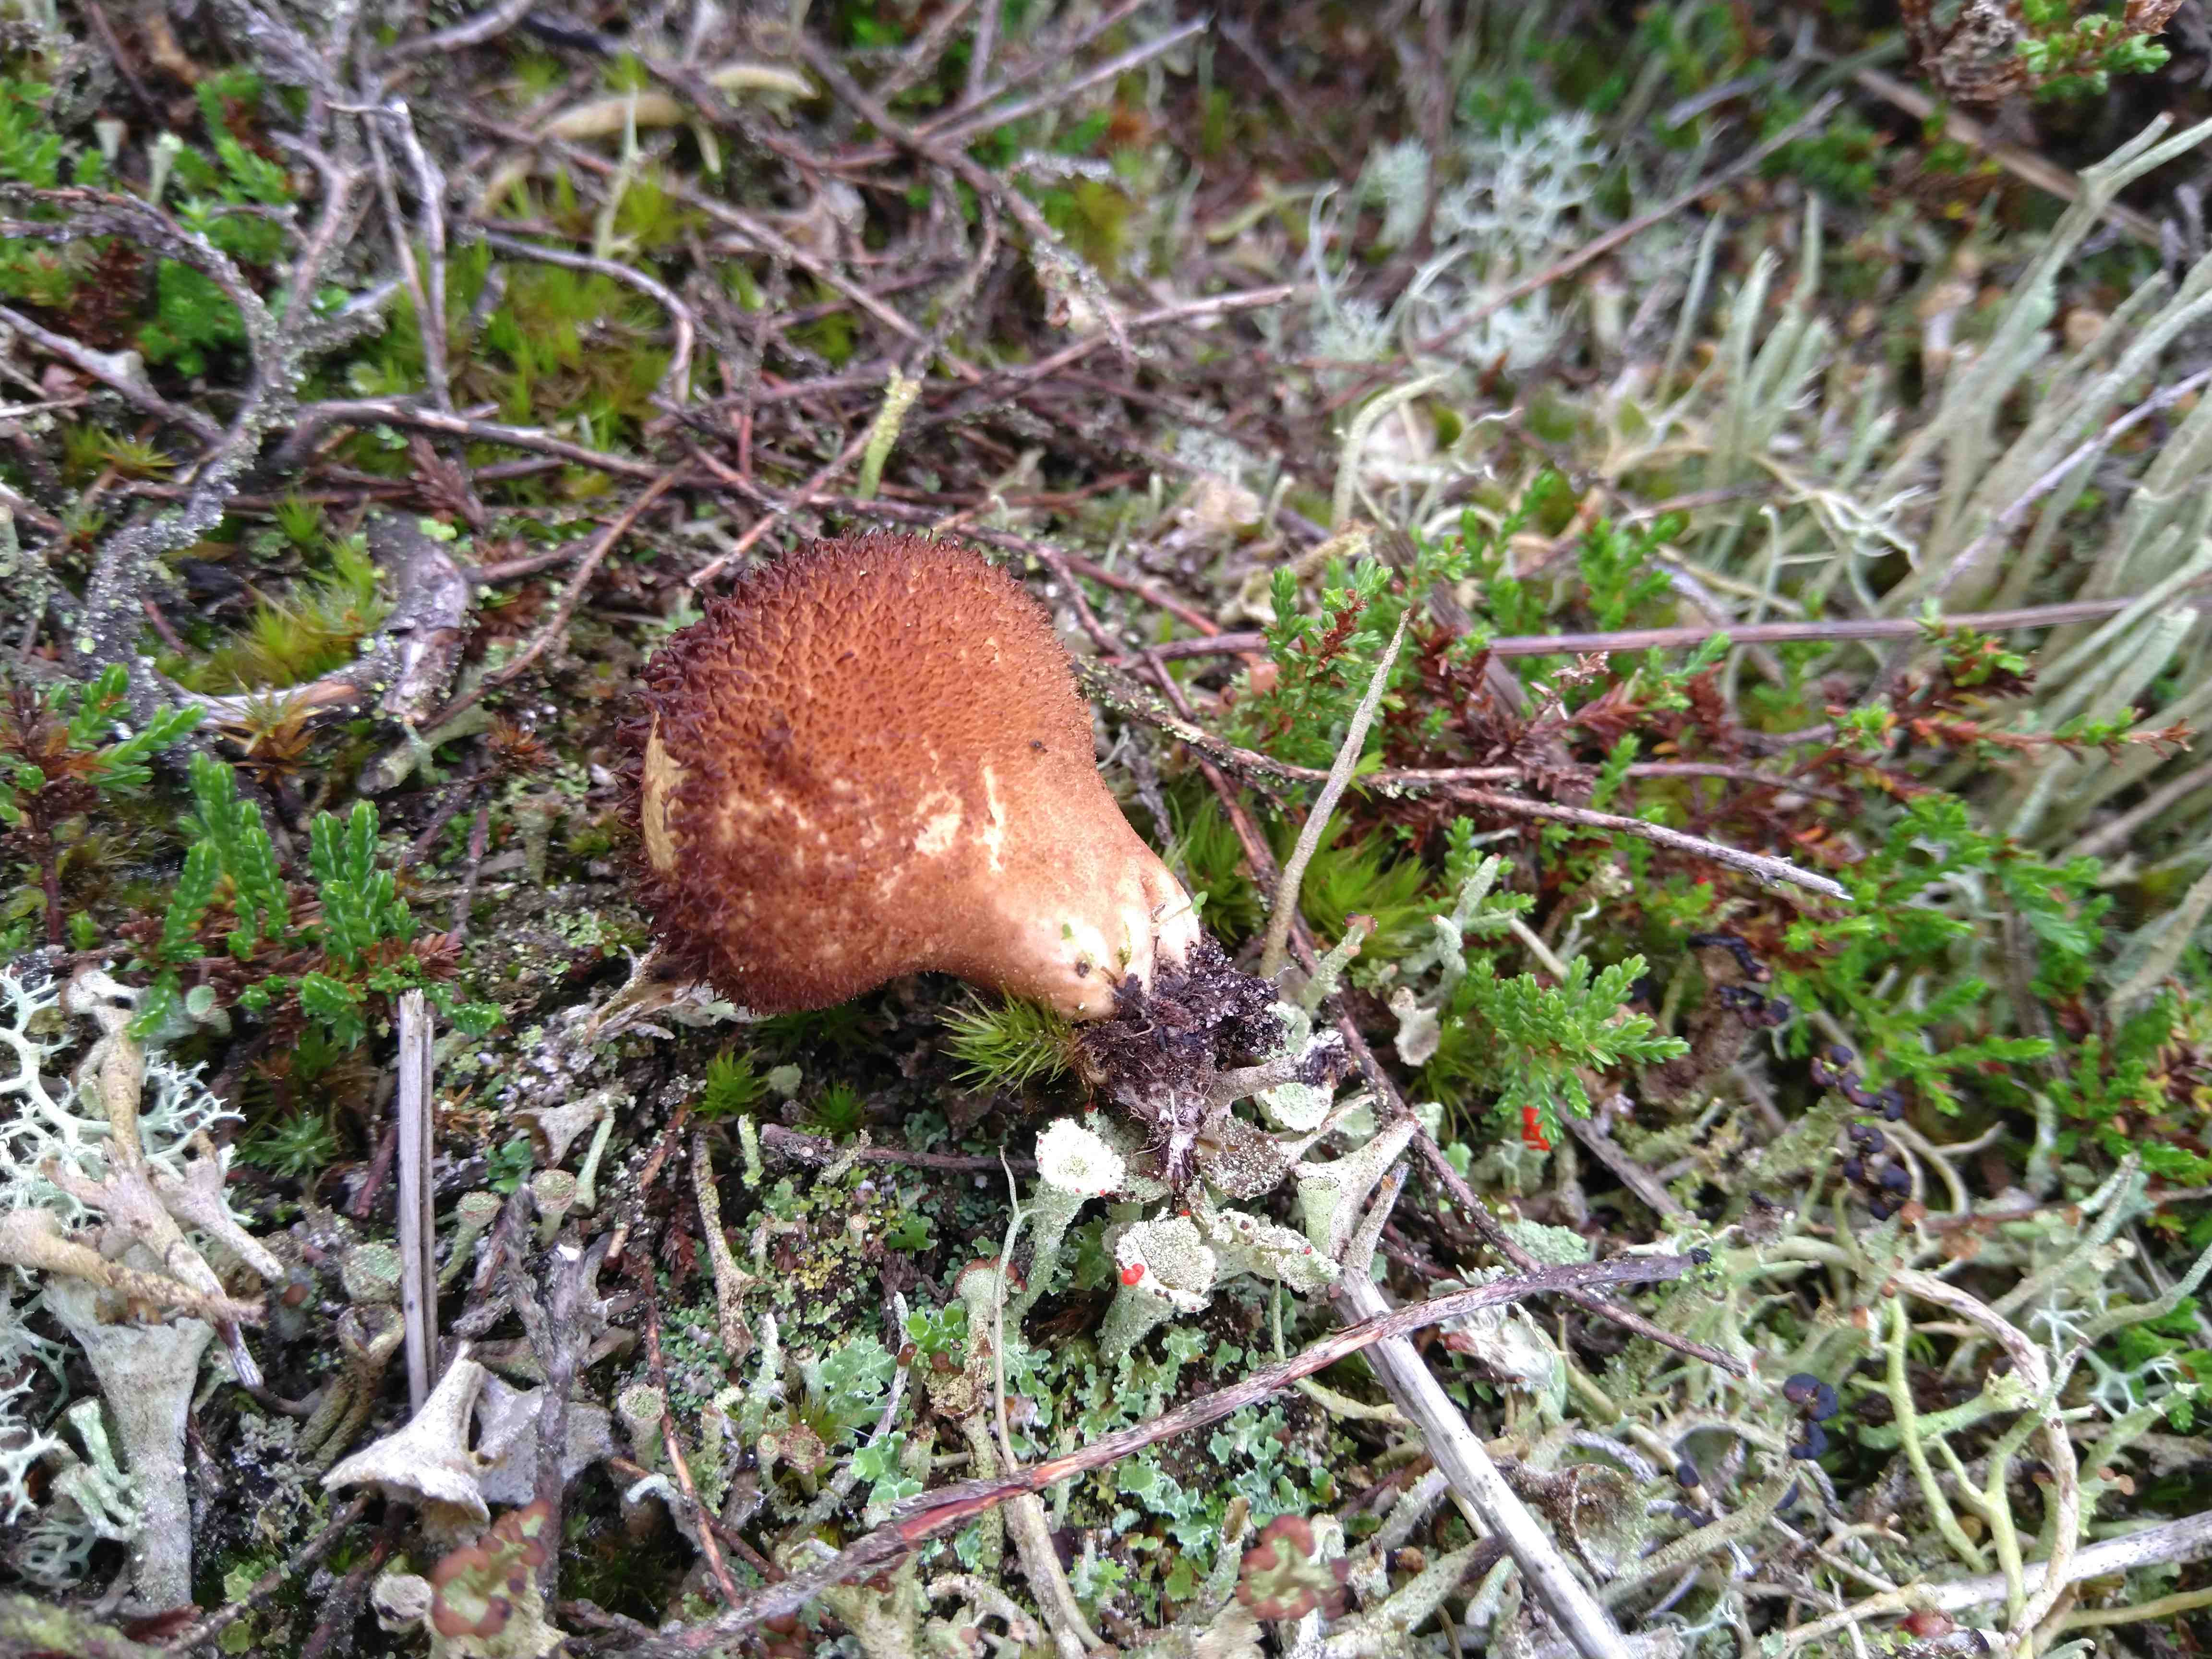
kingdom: Fungi
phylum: Basidiomycota
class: Agaricomycetes
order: Agaricales
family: Lycoperdaceae
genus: Lycoperdon
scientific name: Lycoperdon nigrescens
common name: sortagtig støvbold
